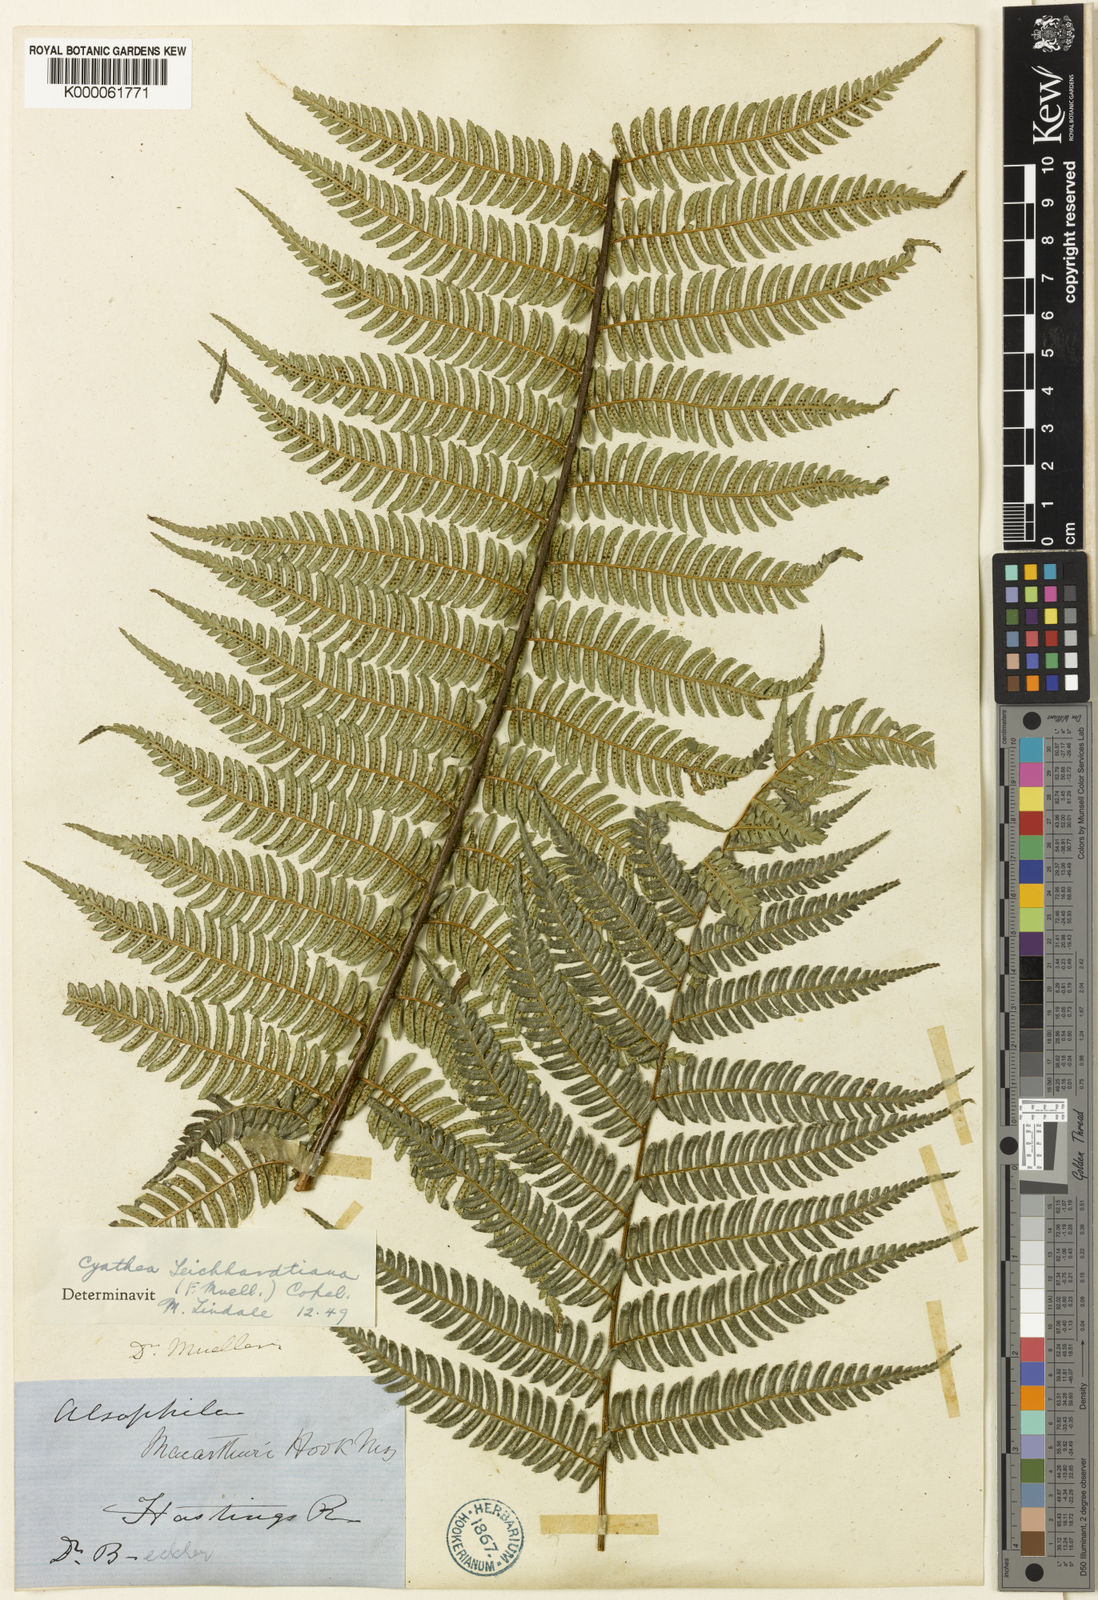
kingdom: Plantae
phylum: Tracheophyta
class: Polypodiopsida
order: Cyatheales
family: Cyatheaceae
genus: Alsophila
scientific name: Alsophila leichhardtiana
